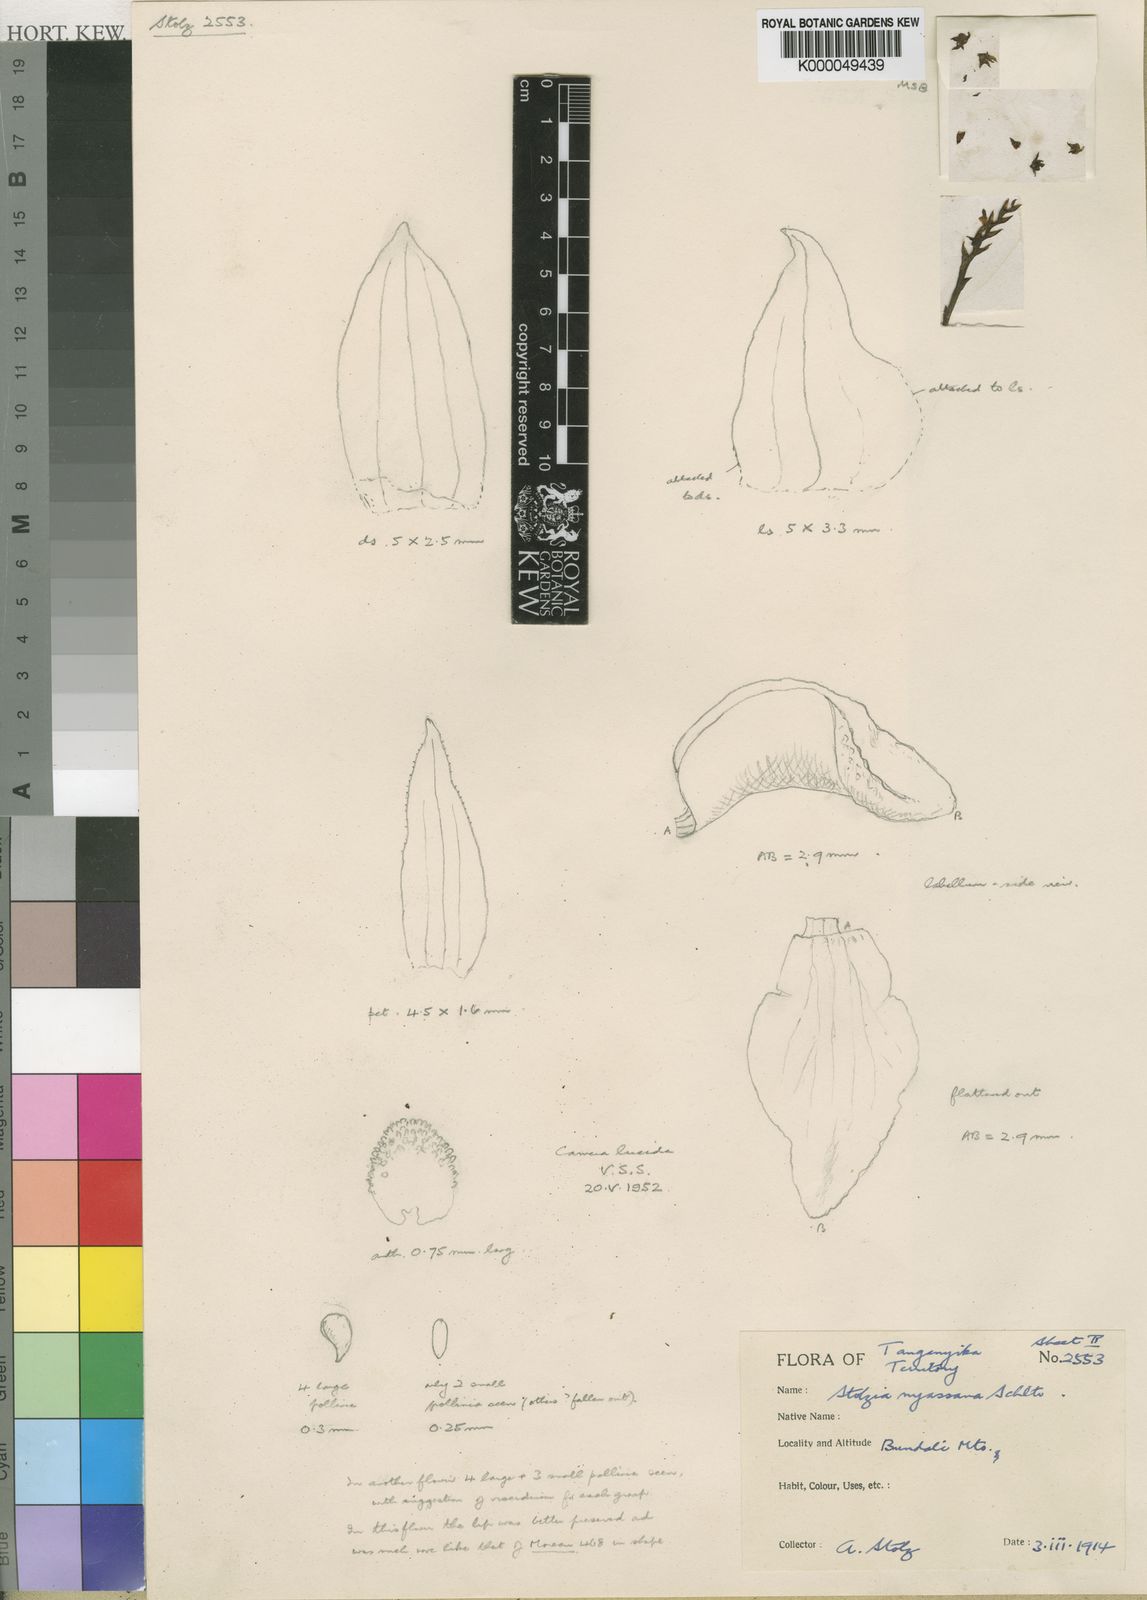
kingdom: Plantae
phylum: Tracheophyta
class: Liliopsida
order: Asparagales
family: Orchidaceae
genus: Porpax
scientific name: Porpax nyassana
